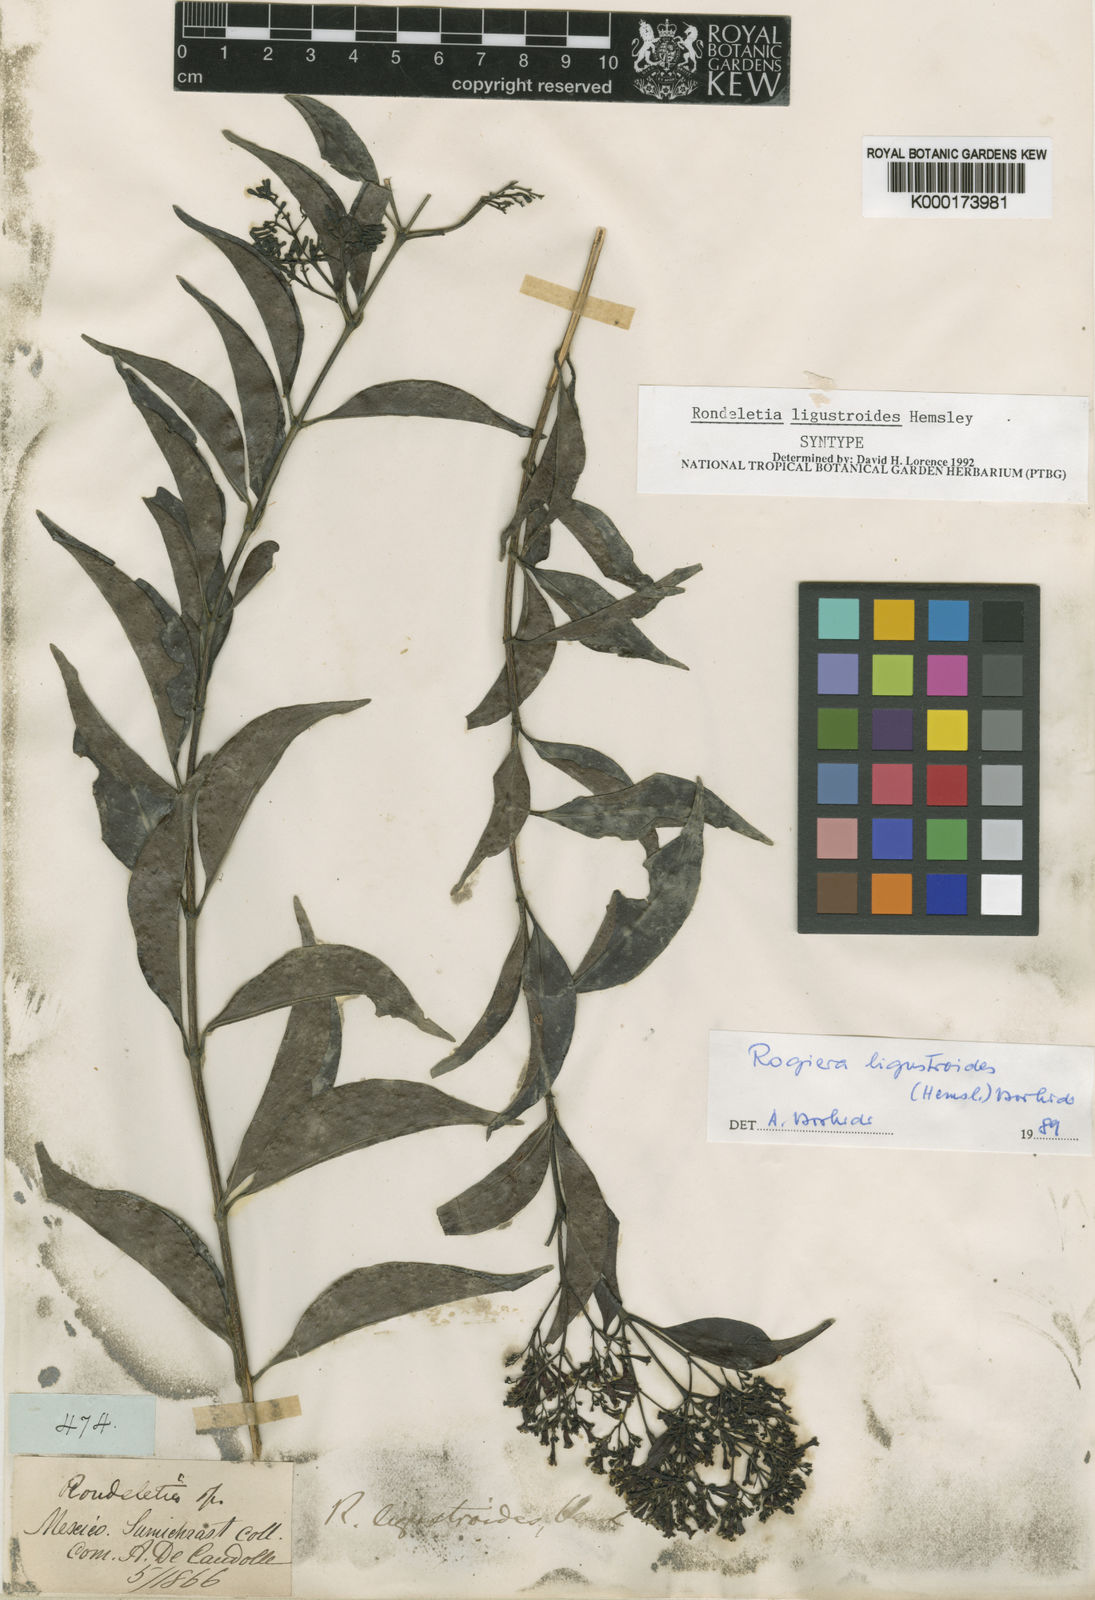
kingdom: Plantae
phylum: Tracheophyta
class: Magnoliopsida
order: Gentianales
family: Rubiaceae
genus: Rogiera
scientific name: Rogiera ligustroides
